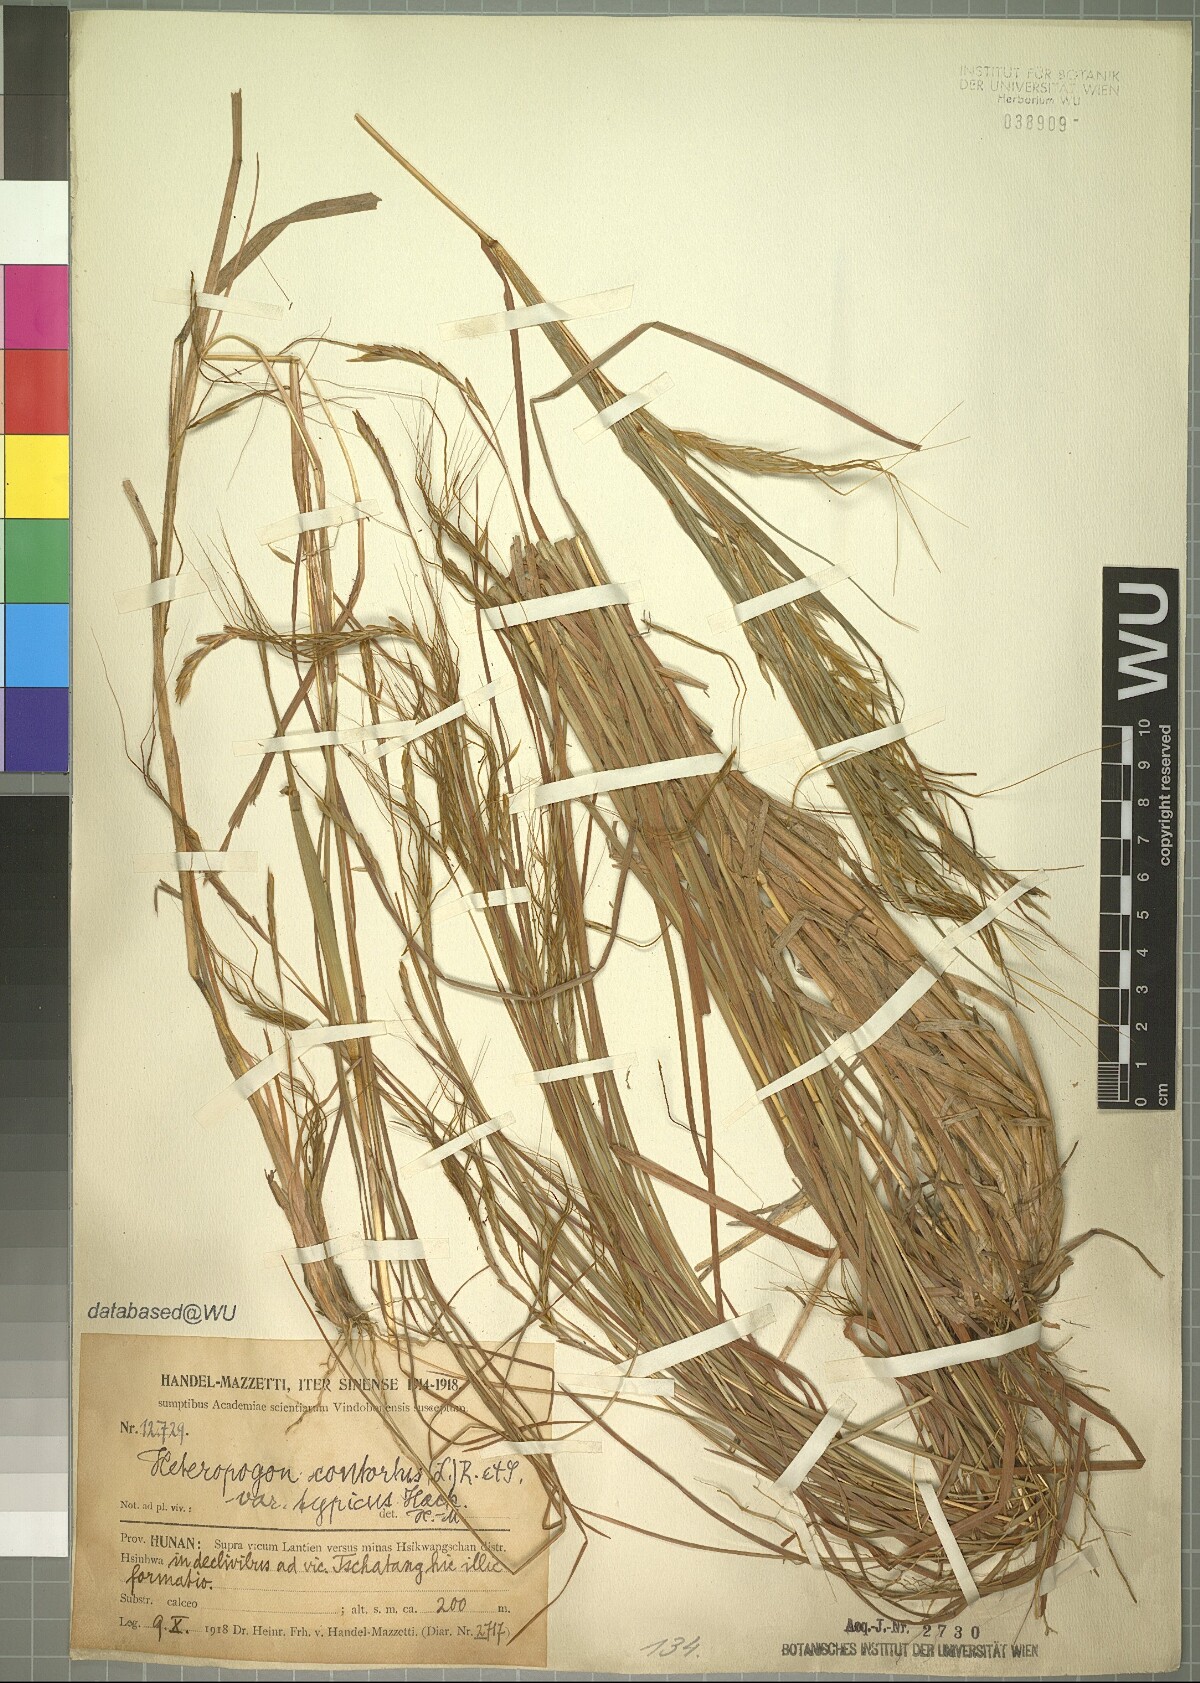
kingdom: Plantae
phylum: Tracheophyta
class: Liliopsida
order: Poales
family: Poaceae
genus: Heteropogon
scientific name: Heteropogon contortus
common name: Tanglehead
